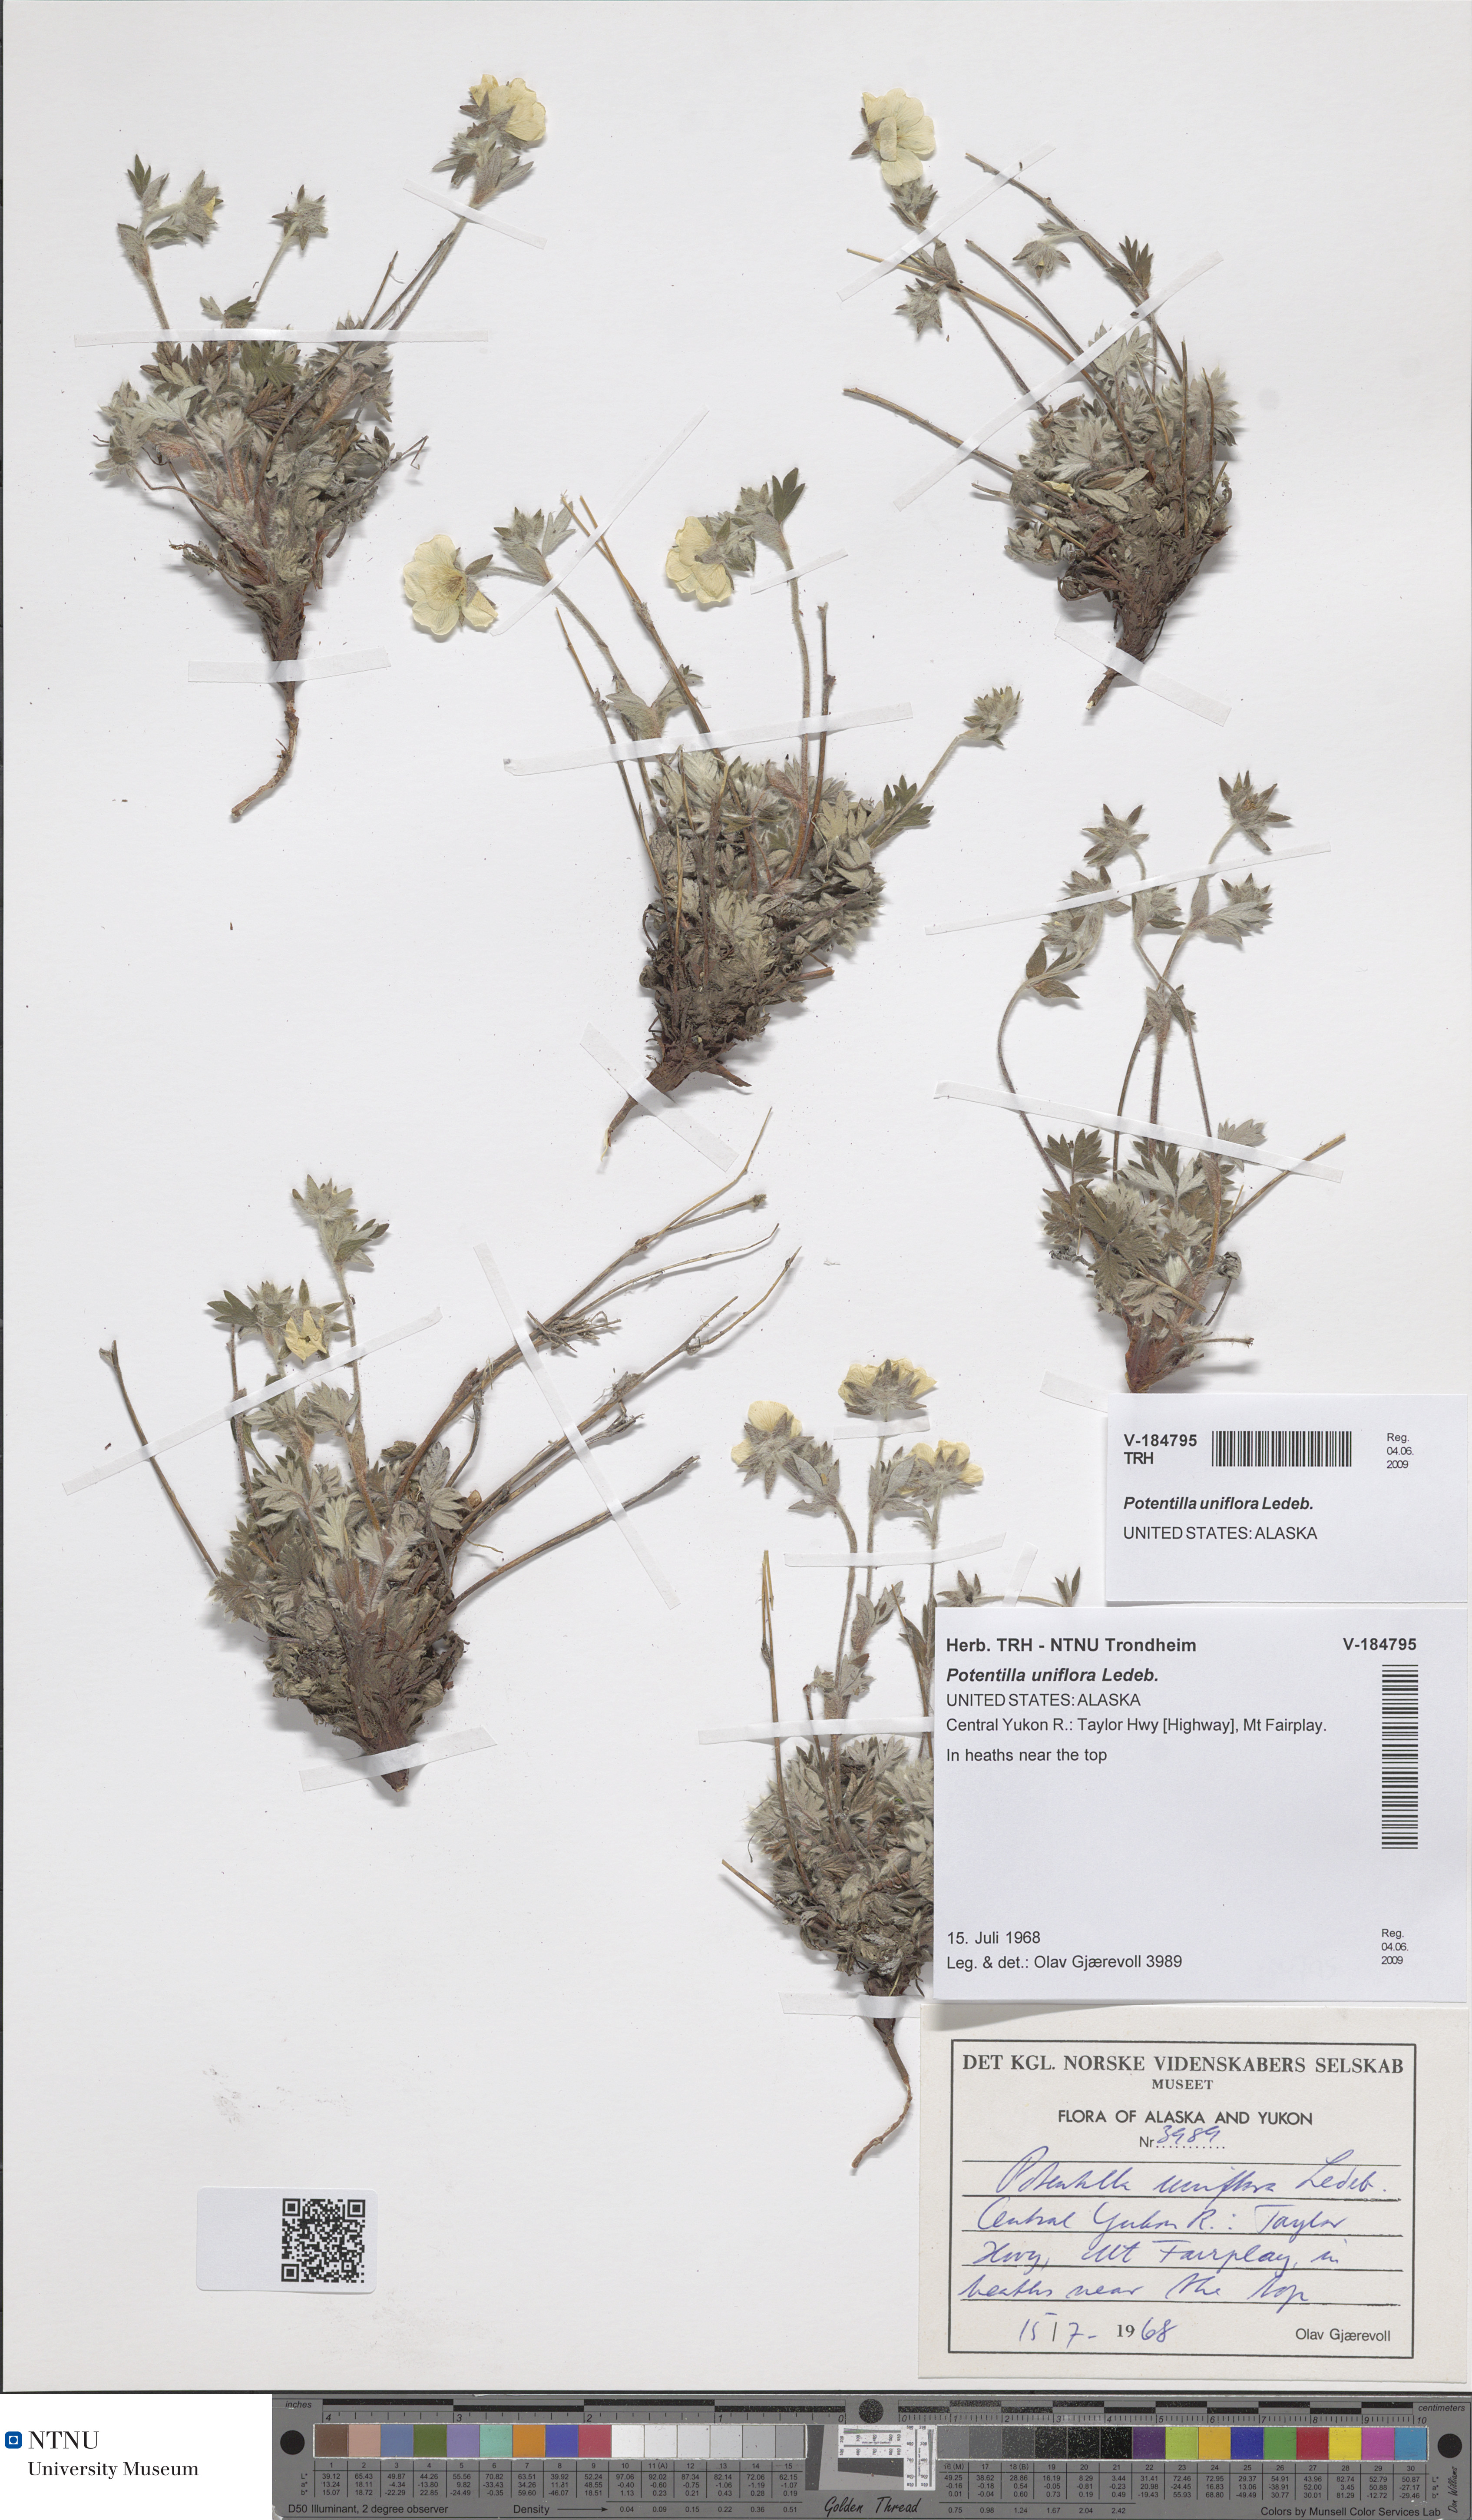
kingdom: Plantae
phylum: Tracheophyta
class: Magnoliopsida
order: Rosales
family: Rosaceae
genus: Potentilla
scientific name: Potentilla uniflora
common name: One-flowered cinquefoil
